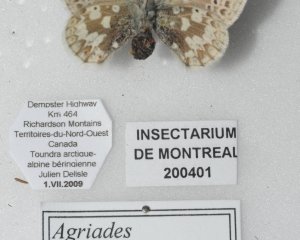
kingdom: Animalia
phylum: Arthropoda
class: Insecta
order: Lepidoptera
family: Lycaenidae
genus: Agriades
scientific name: Agriades glandon
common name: Arctic Blue
